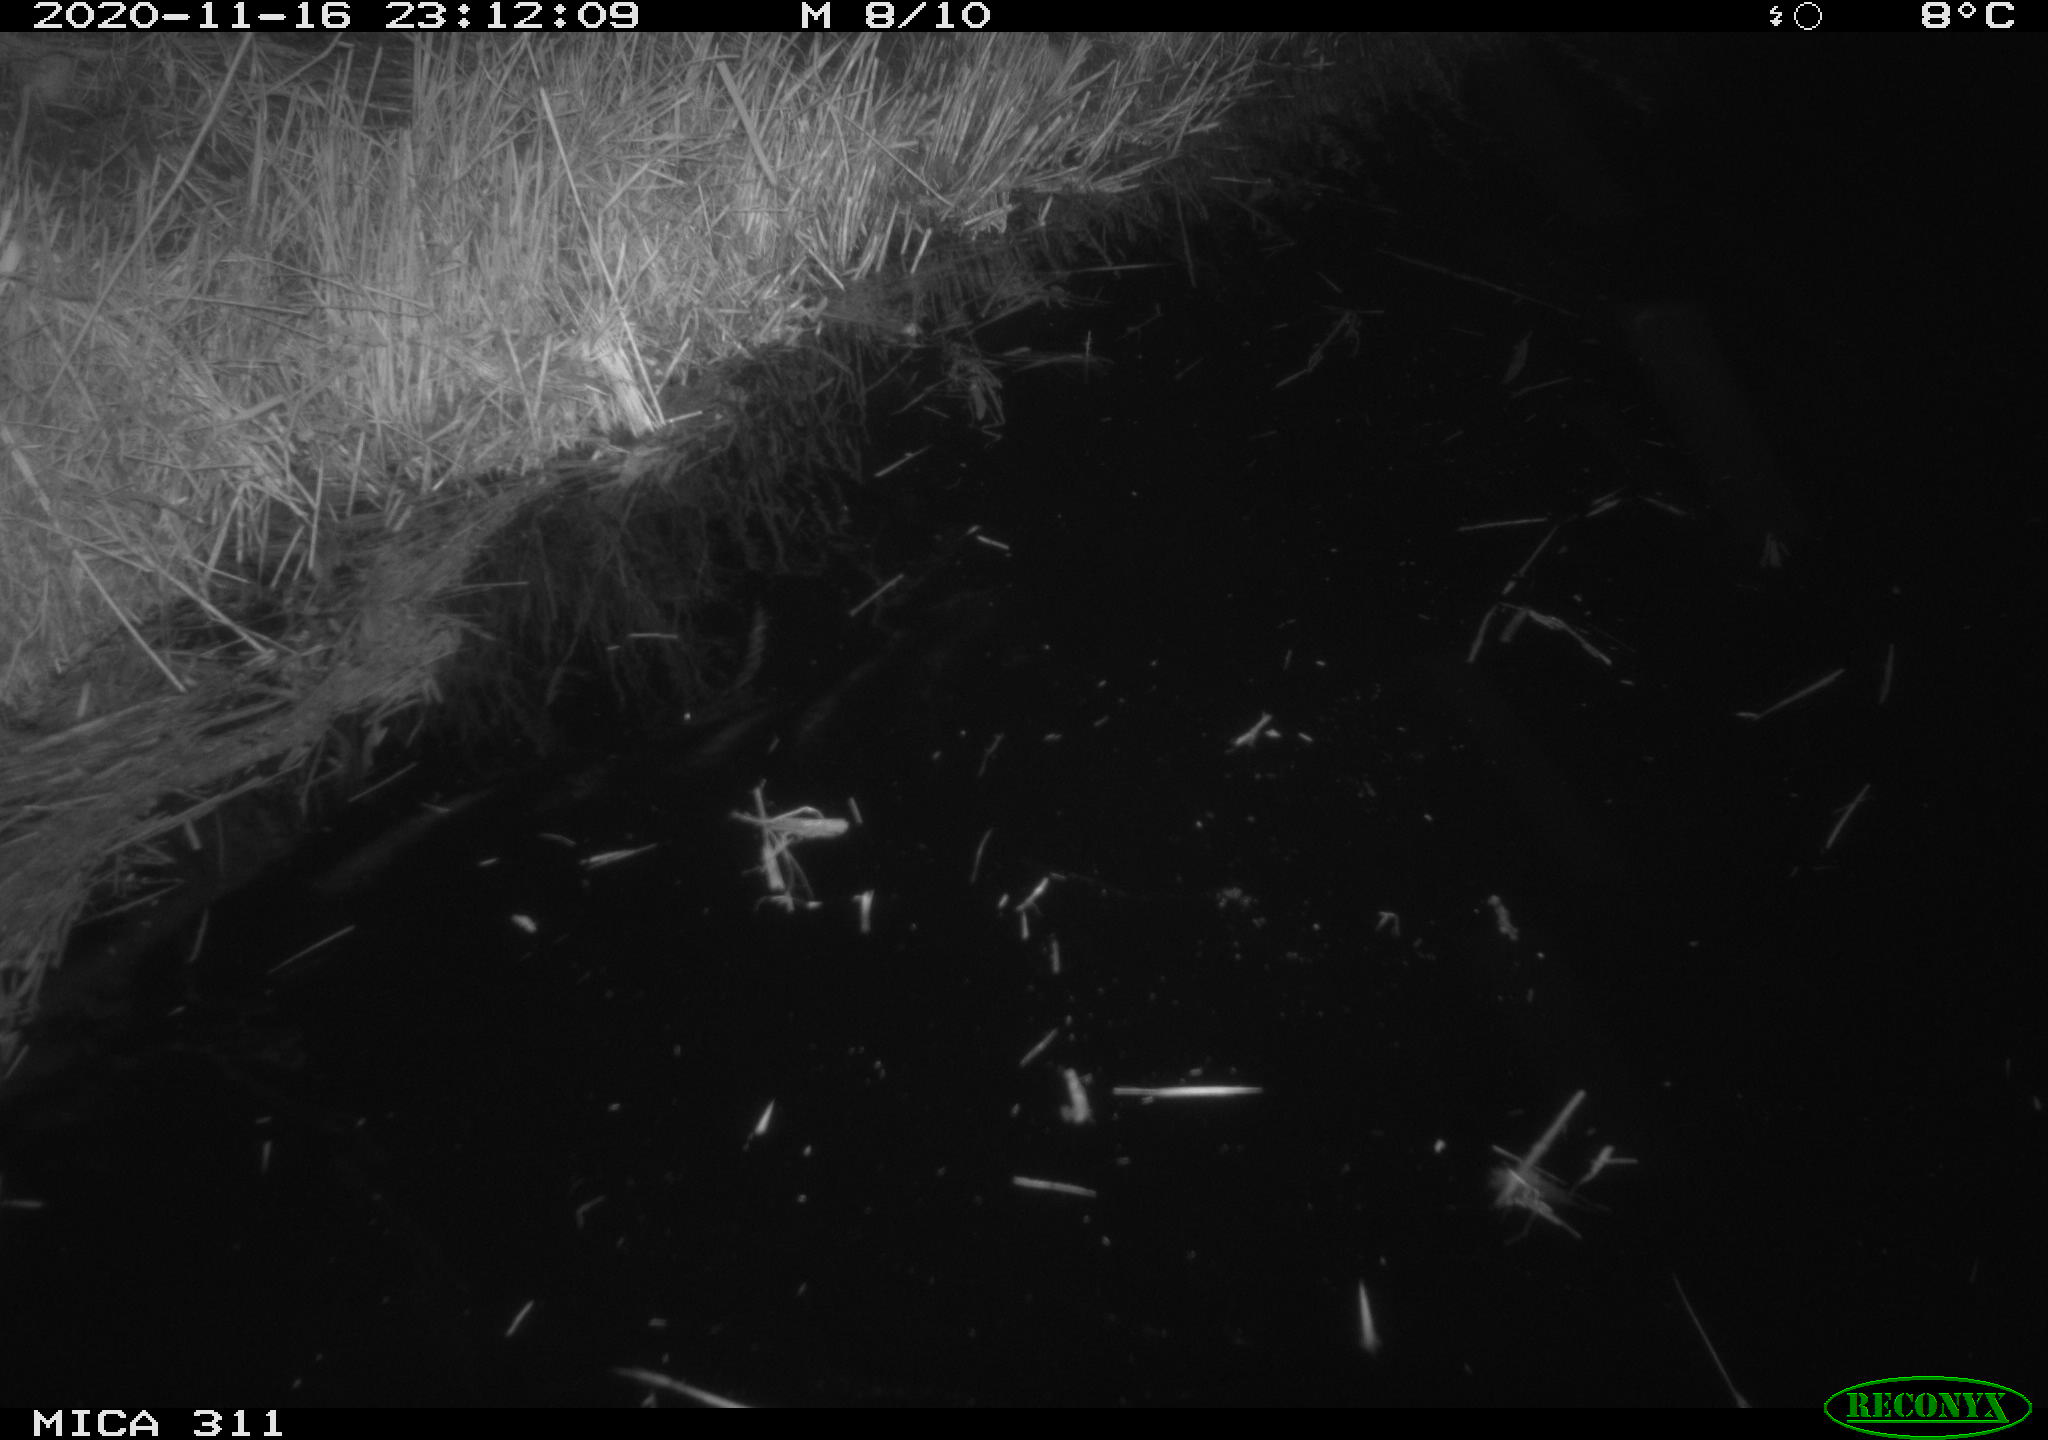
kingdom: Animalia
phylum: Chordata
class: Mammalia
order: Rodentia
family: Muridae
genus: Rattus
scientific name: Rattus norvegicus
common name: Brown rat
